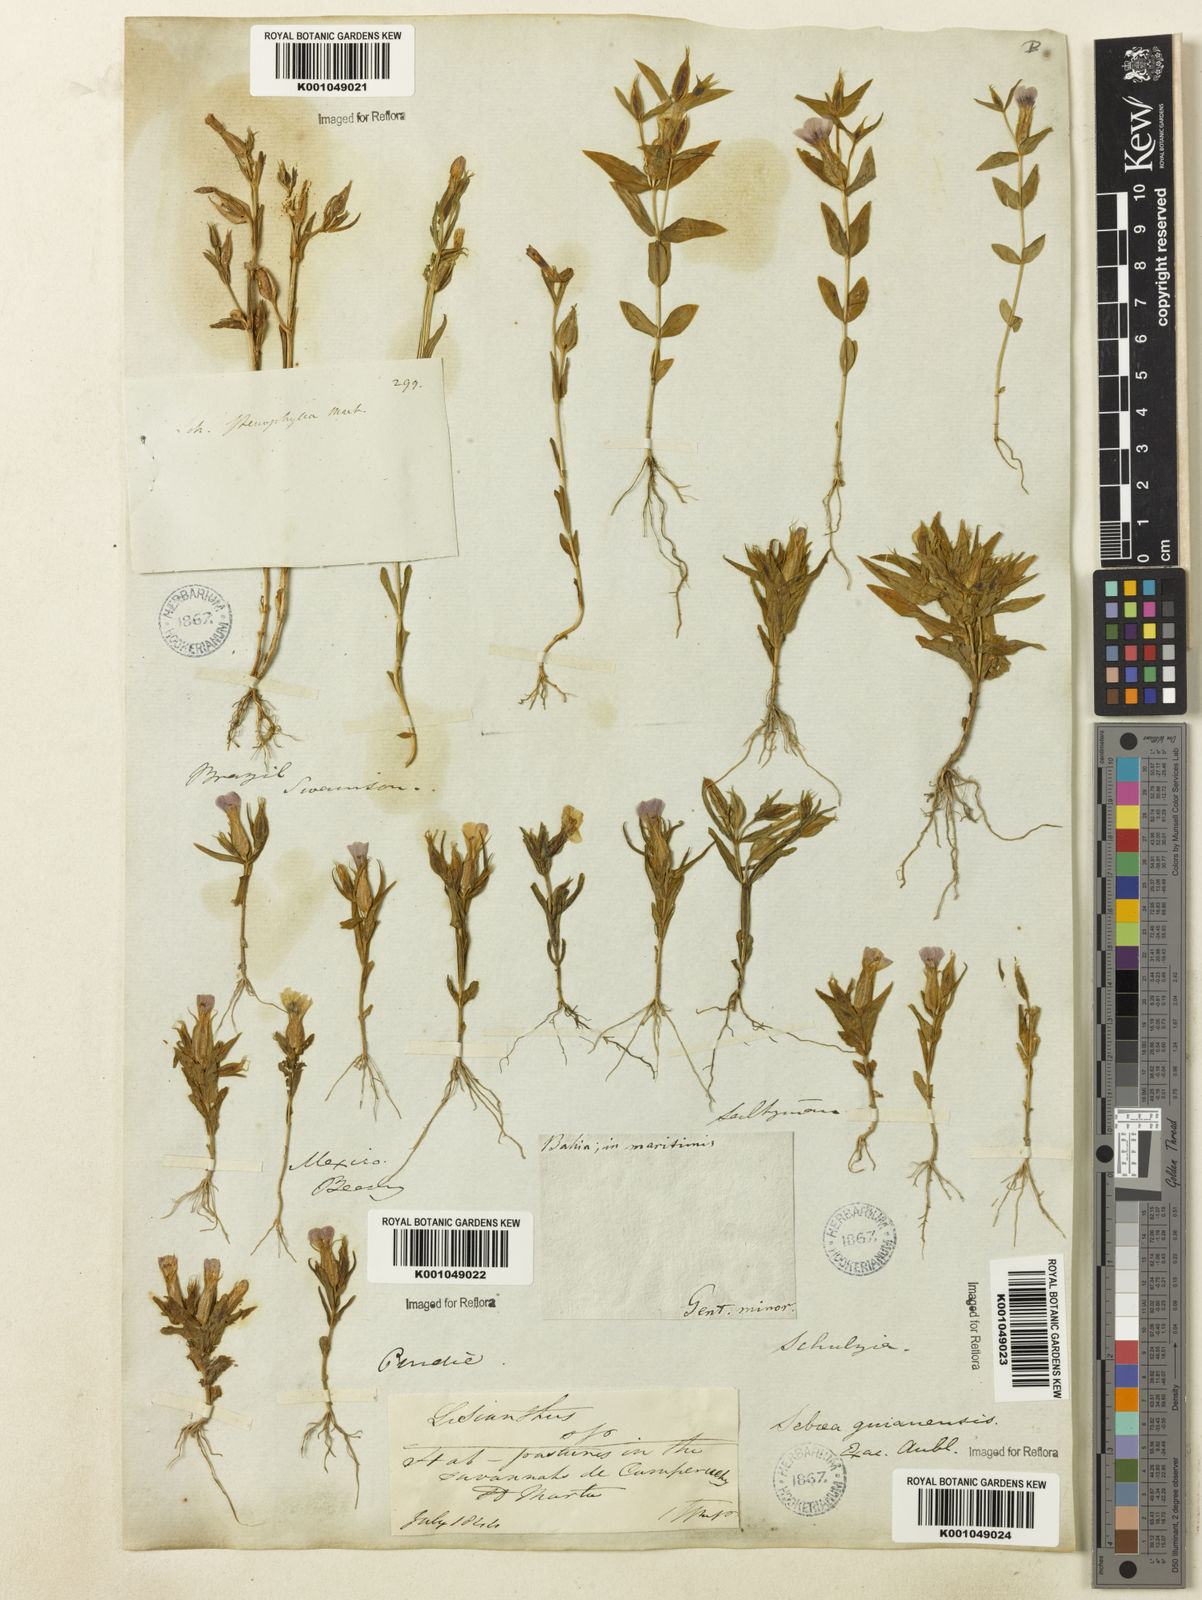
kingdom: Plantae
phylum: Tracheophyta
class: Magnoliopsida
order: Gentianales
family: Gentianaceae
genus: Schultesia
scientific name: Schultesia guianensis
